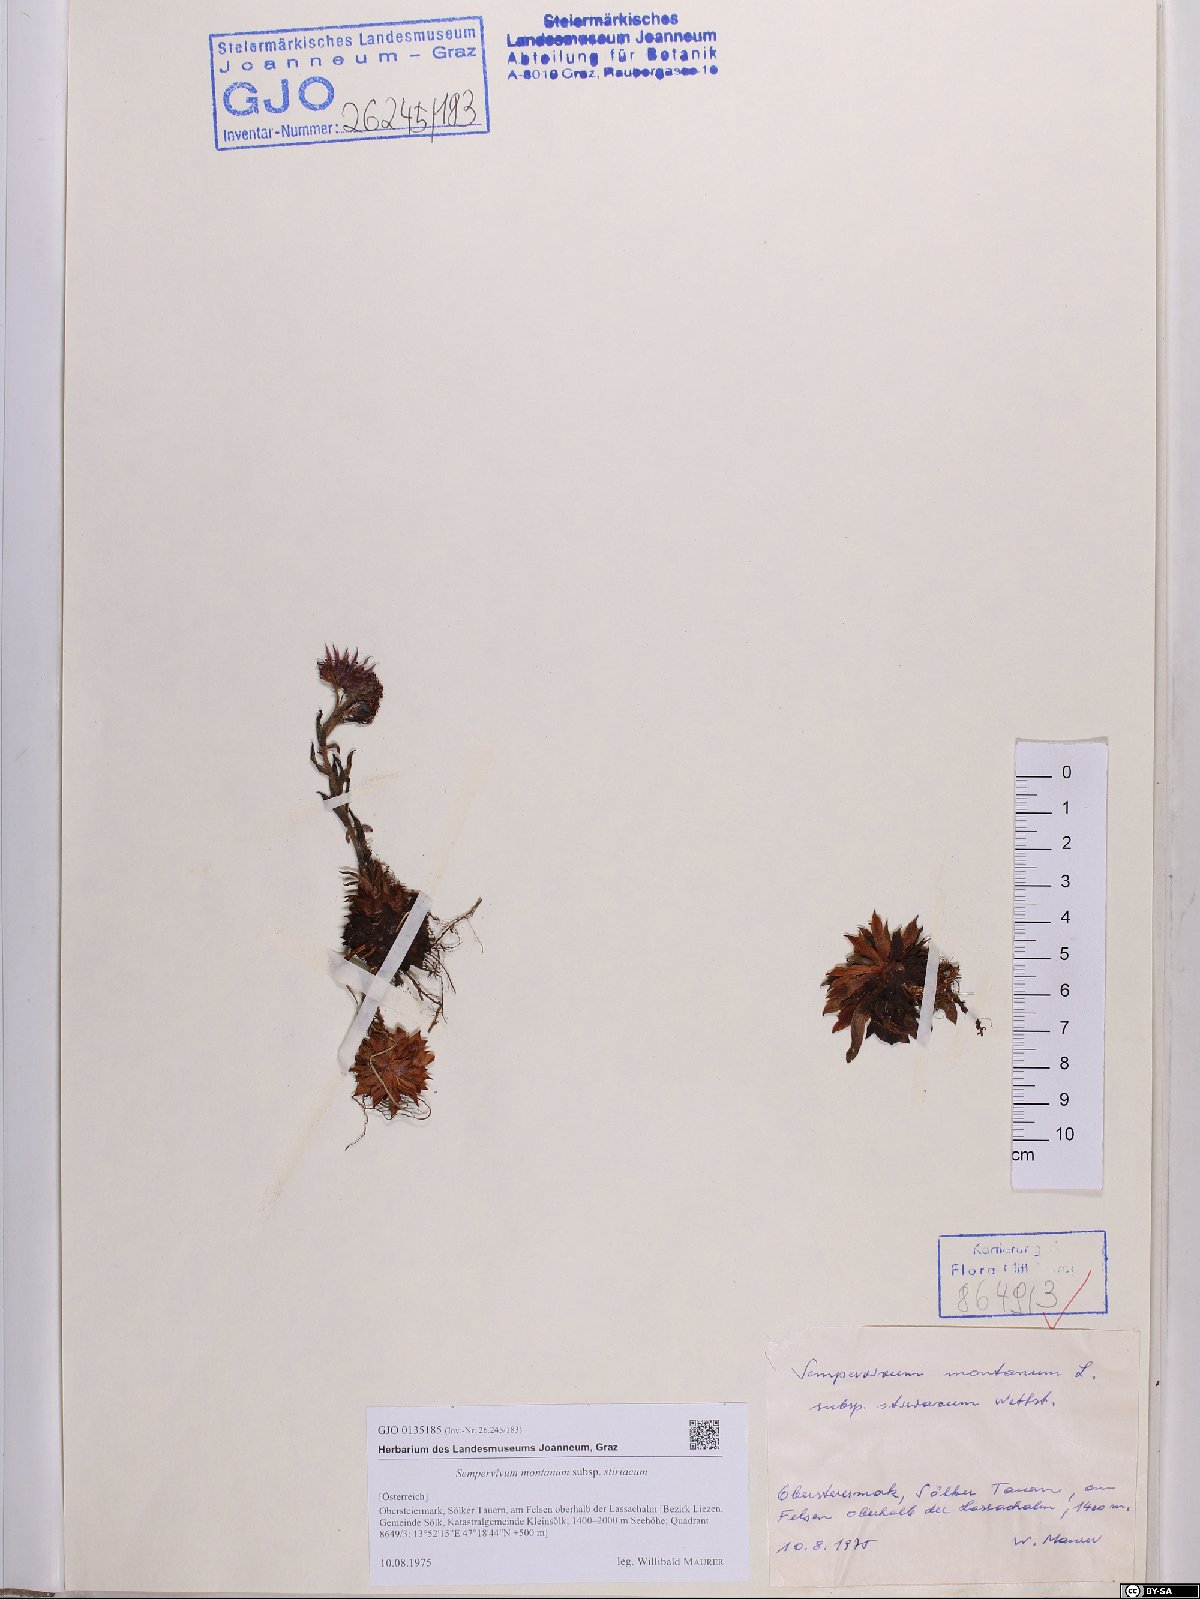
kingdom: Plantae
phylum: Tracheophyta
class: Magnoliopsida
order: Saxifragales
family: Crassulaceae
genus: Sempervivum
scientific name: Sempervivum montanum
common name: Mountain house-leek
